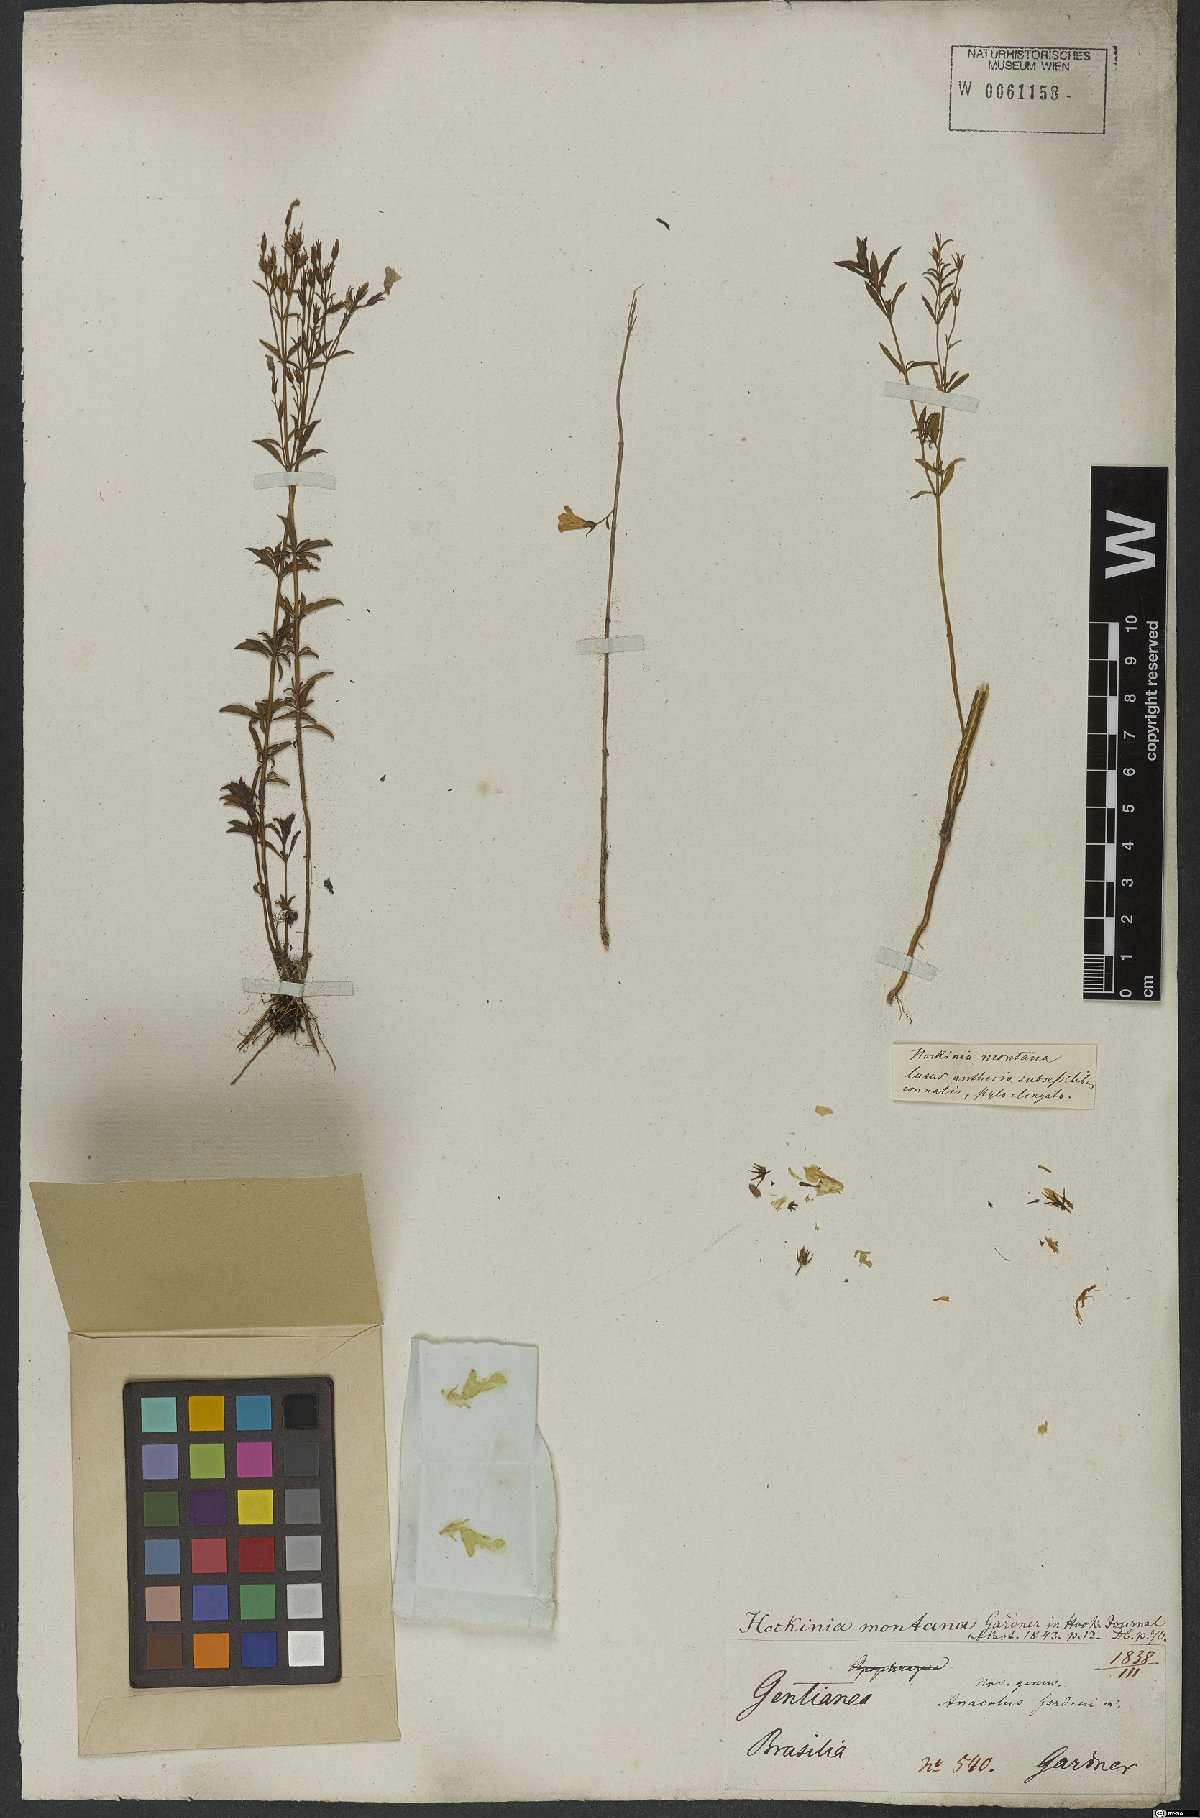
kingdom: Plantae
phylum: Tracheophyta
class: Magnoliopsida
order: Gentianales
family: Gentianaceae
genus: Hockinia
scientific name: Hockinia montana
